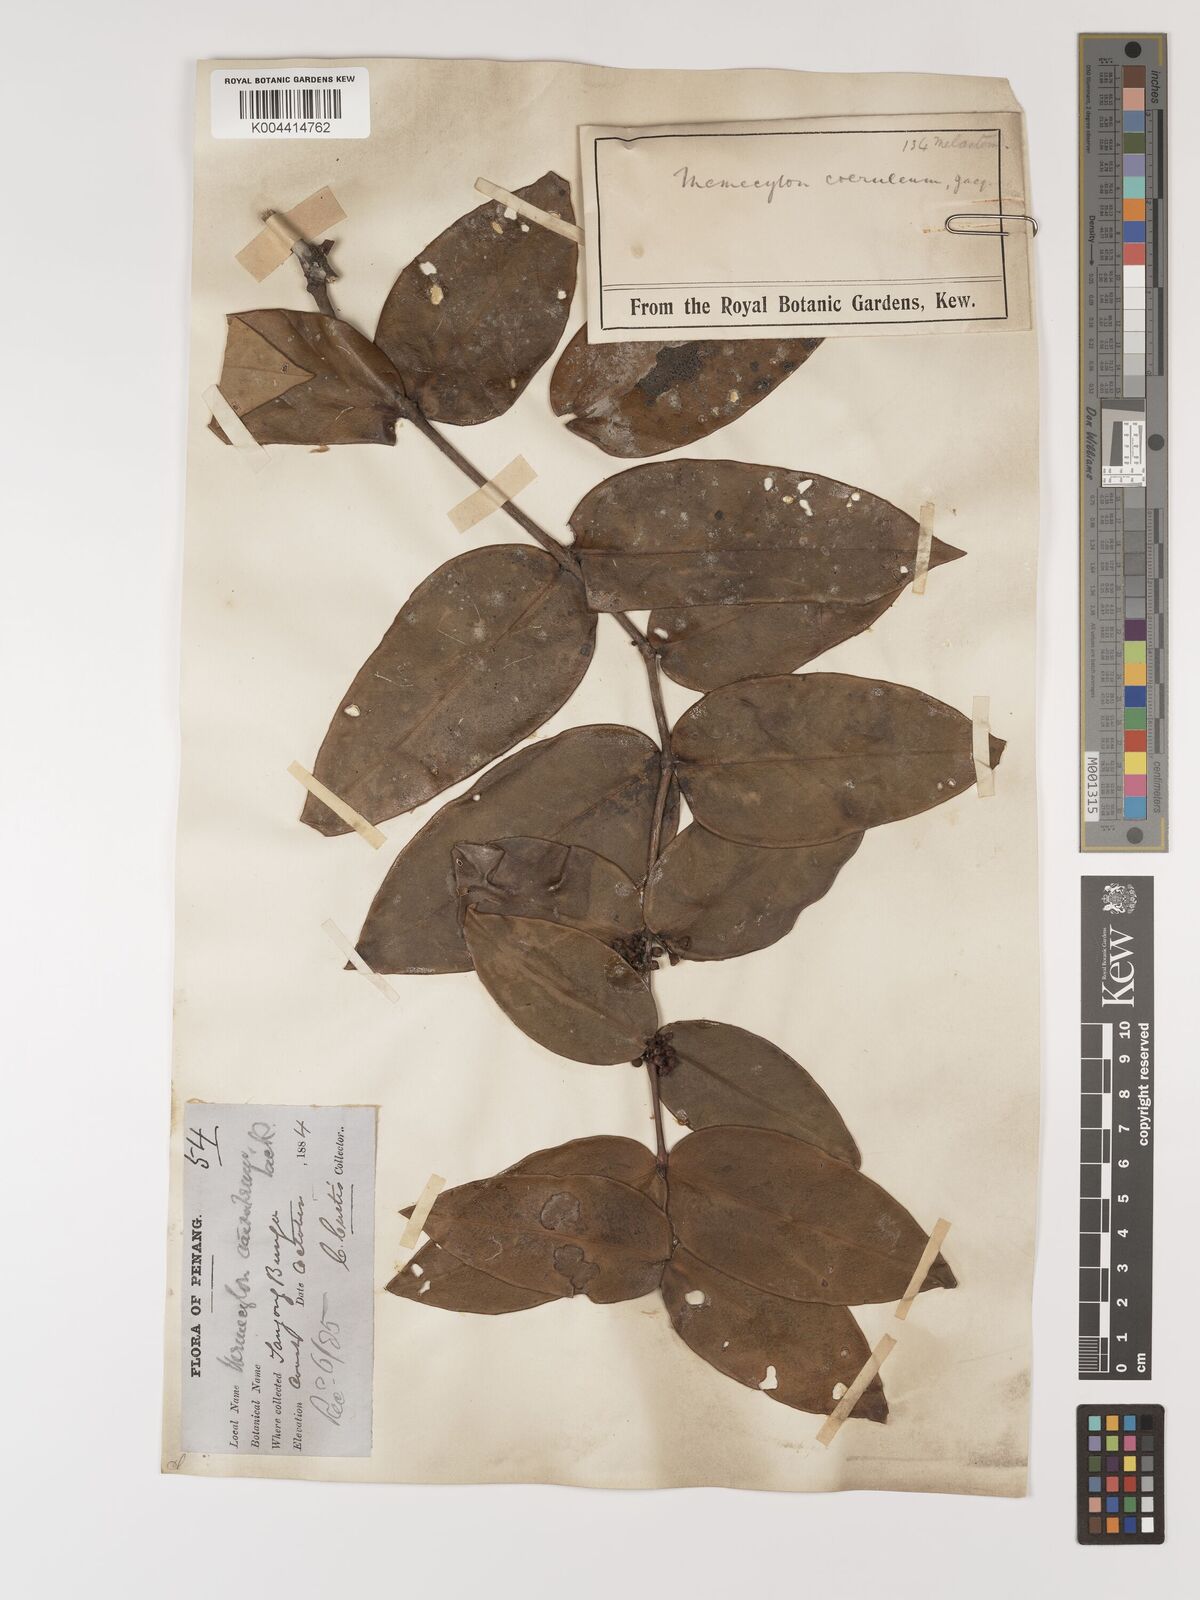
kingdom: Plantae
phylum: Tracheophyta
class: Magnoliopsida
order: Myrtales
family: Melastomataceae
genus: Memecylon
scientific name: Memecylon
